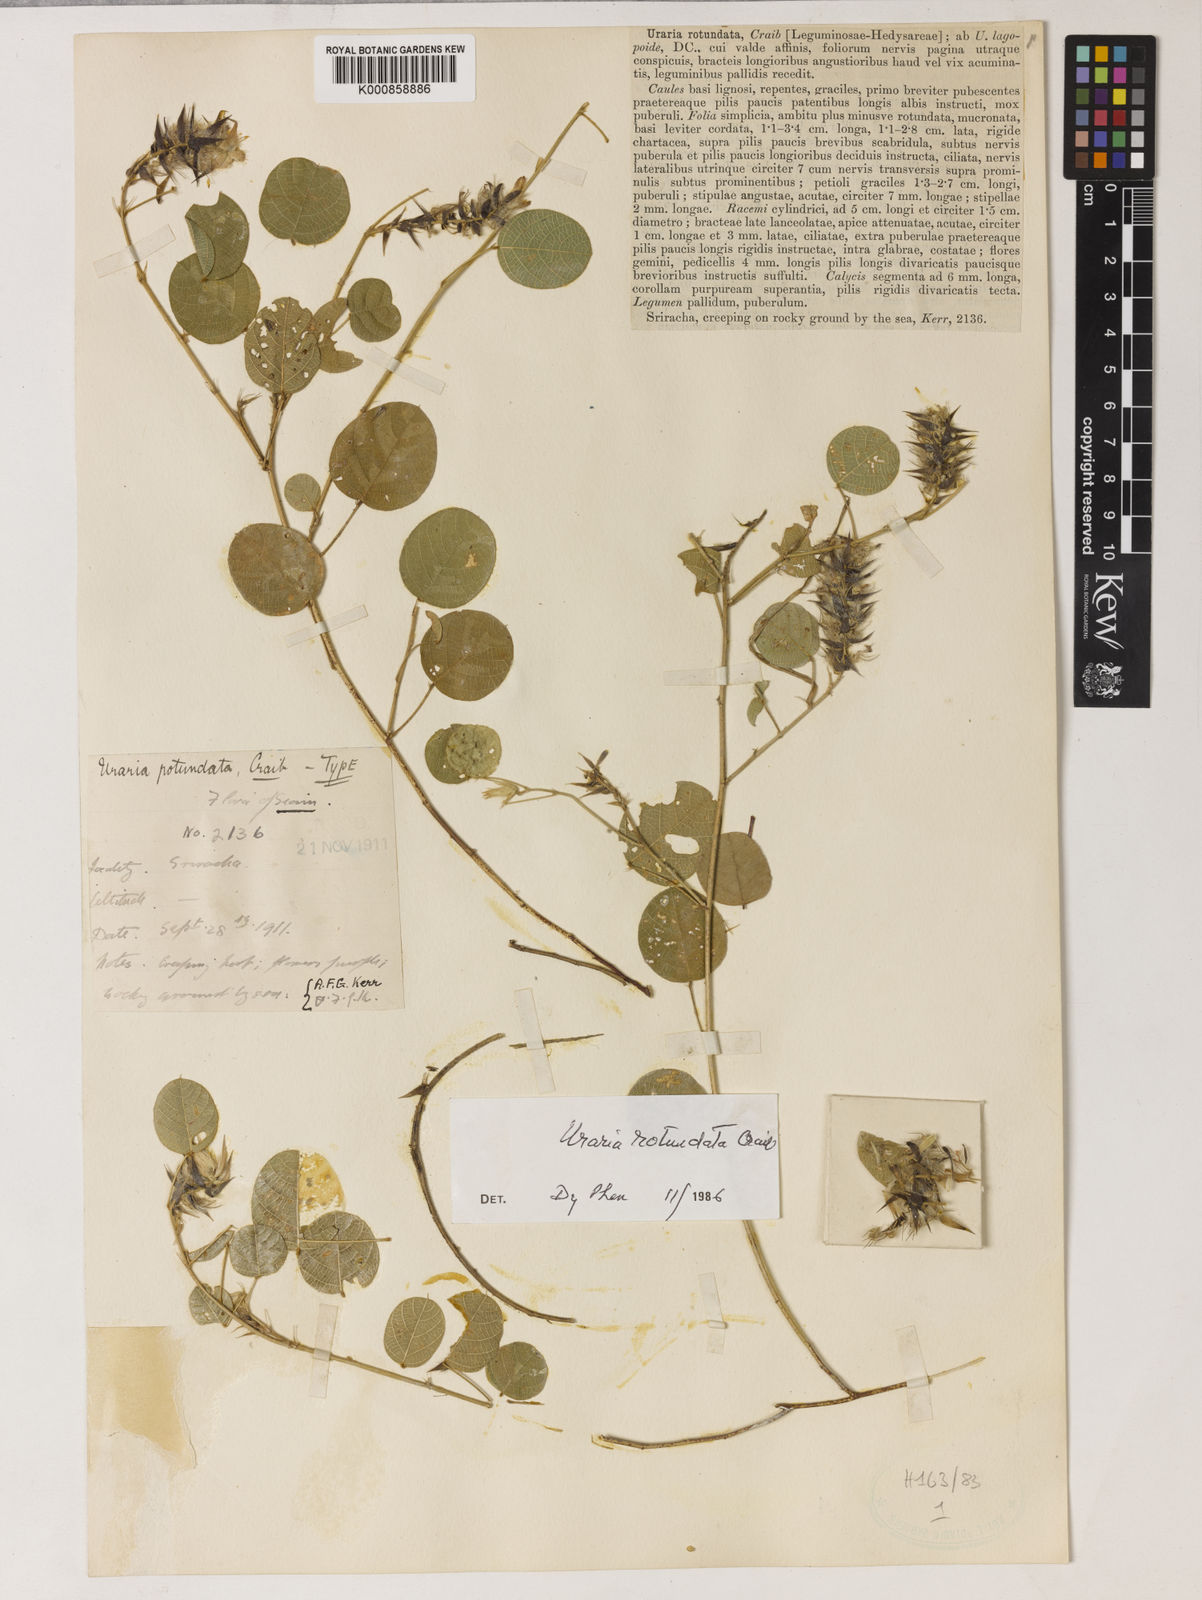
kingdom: Plantae
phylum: Tracheophyta
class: Magnoliopsida
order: Fabales
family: Fabaceae
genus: Uraria
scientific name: Uraria rotundata
